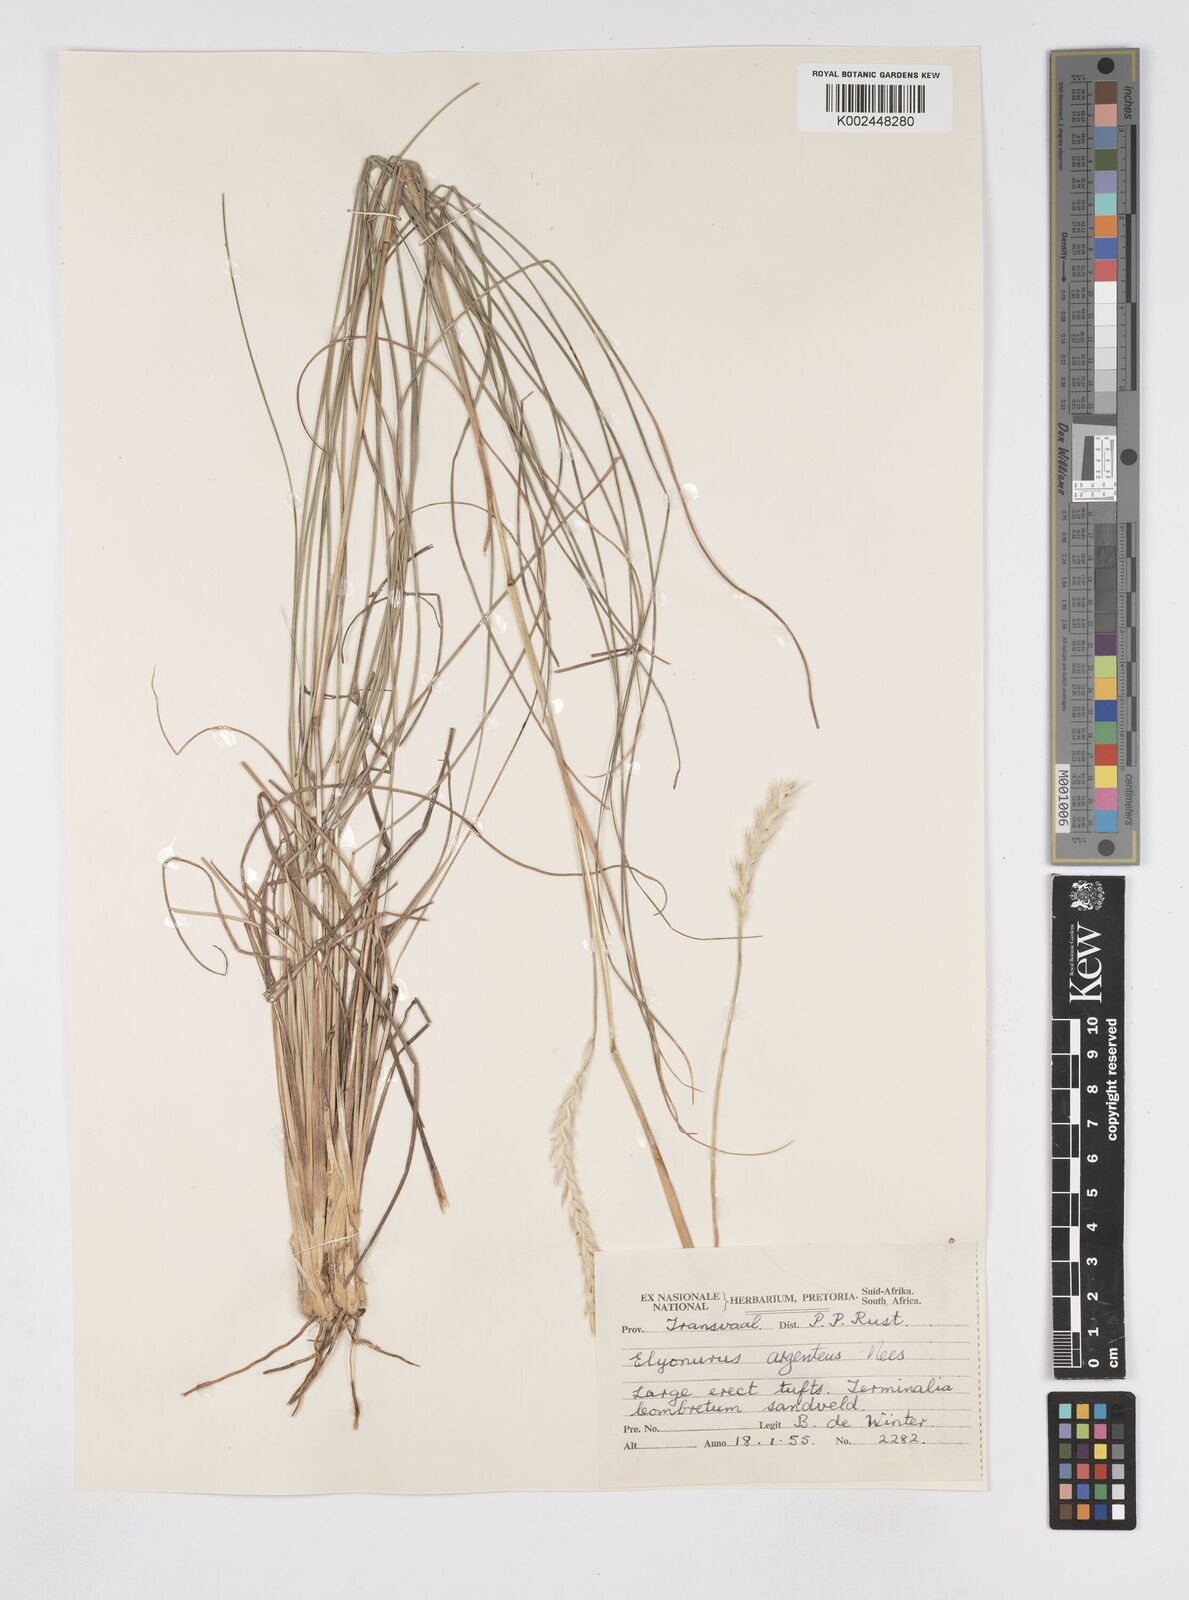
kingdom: Plantae
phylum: Tracheophyta
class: Liliopsida
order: Poales
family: Poaceae
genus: Elionurus
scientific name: Elionurus muticus
